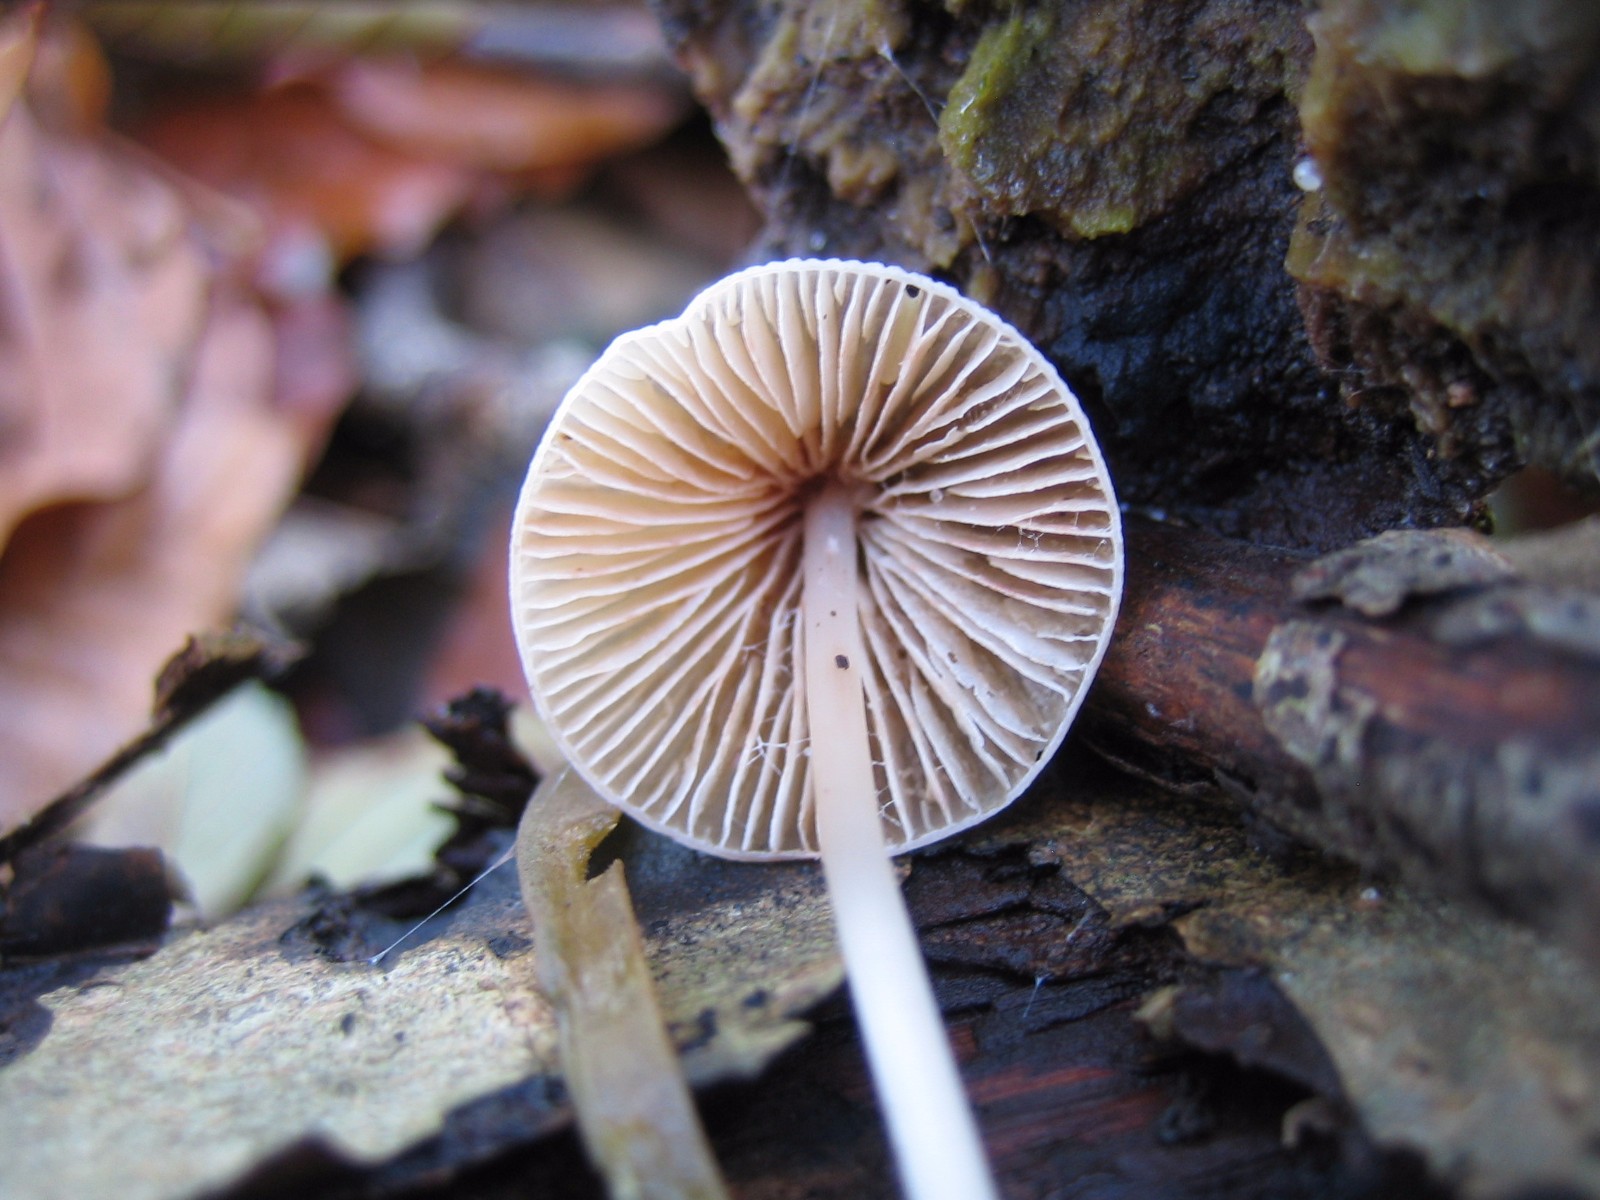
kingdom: Fungi
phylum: Basidiomycota
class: Agaricomycetes
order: Agaricales
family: Mycenaceae
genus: Mycena
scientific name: Mycena
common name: huesvamp
